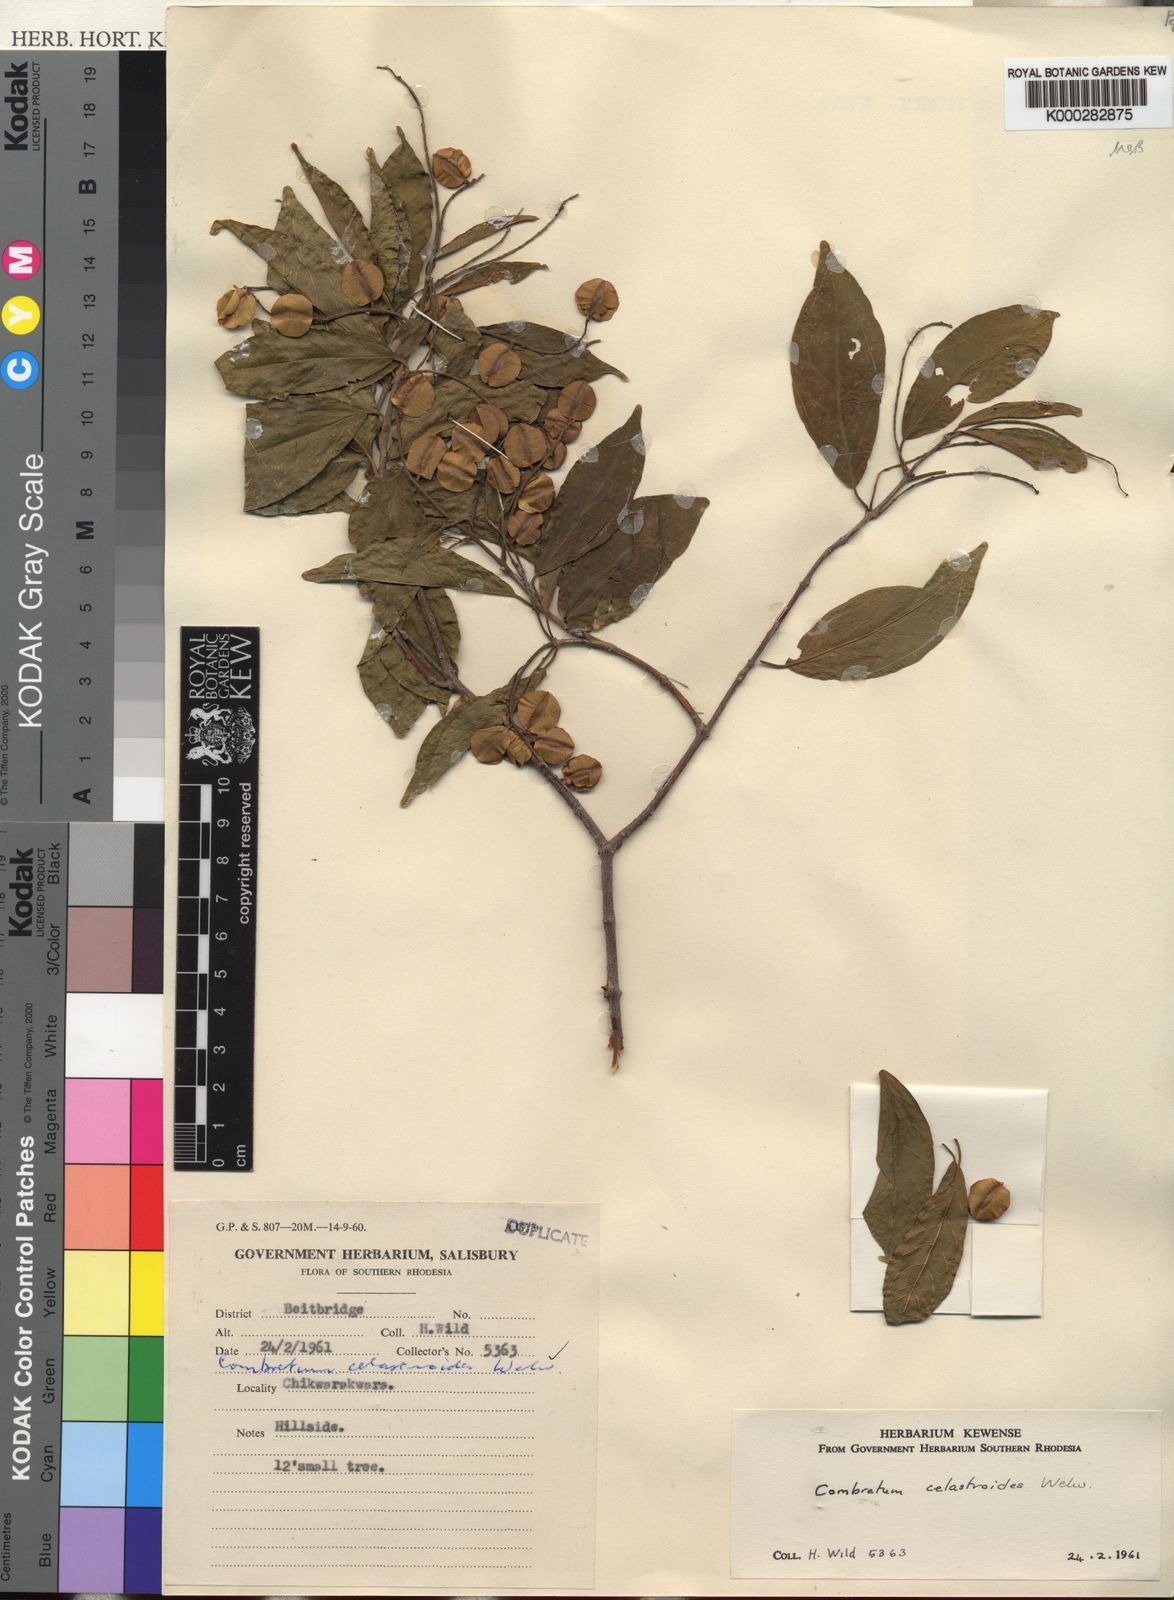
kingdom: Plantae
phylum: Tracheophyta
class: Magnoliopsida
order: Myrtales
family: Combretaceae
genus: Combretum
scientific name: Combretum celastroides
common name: Jesse-bush combretum
